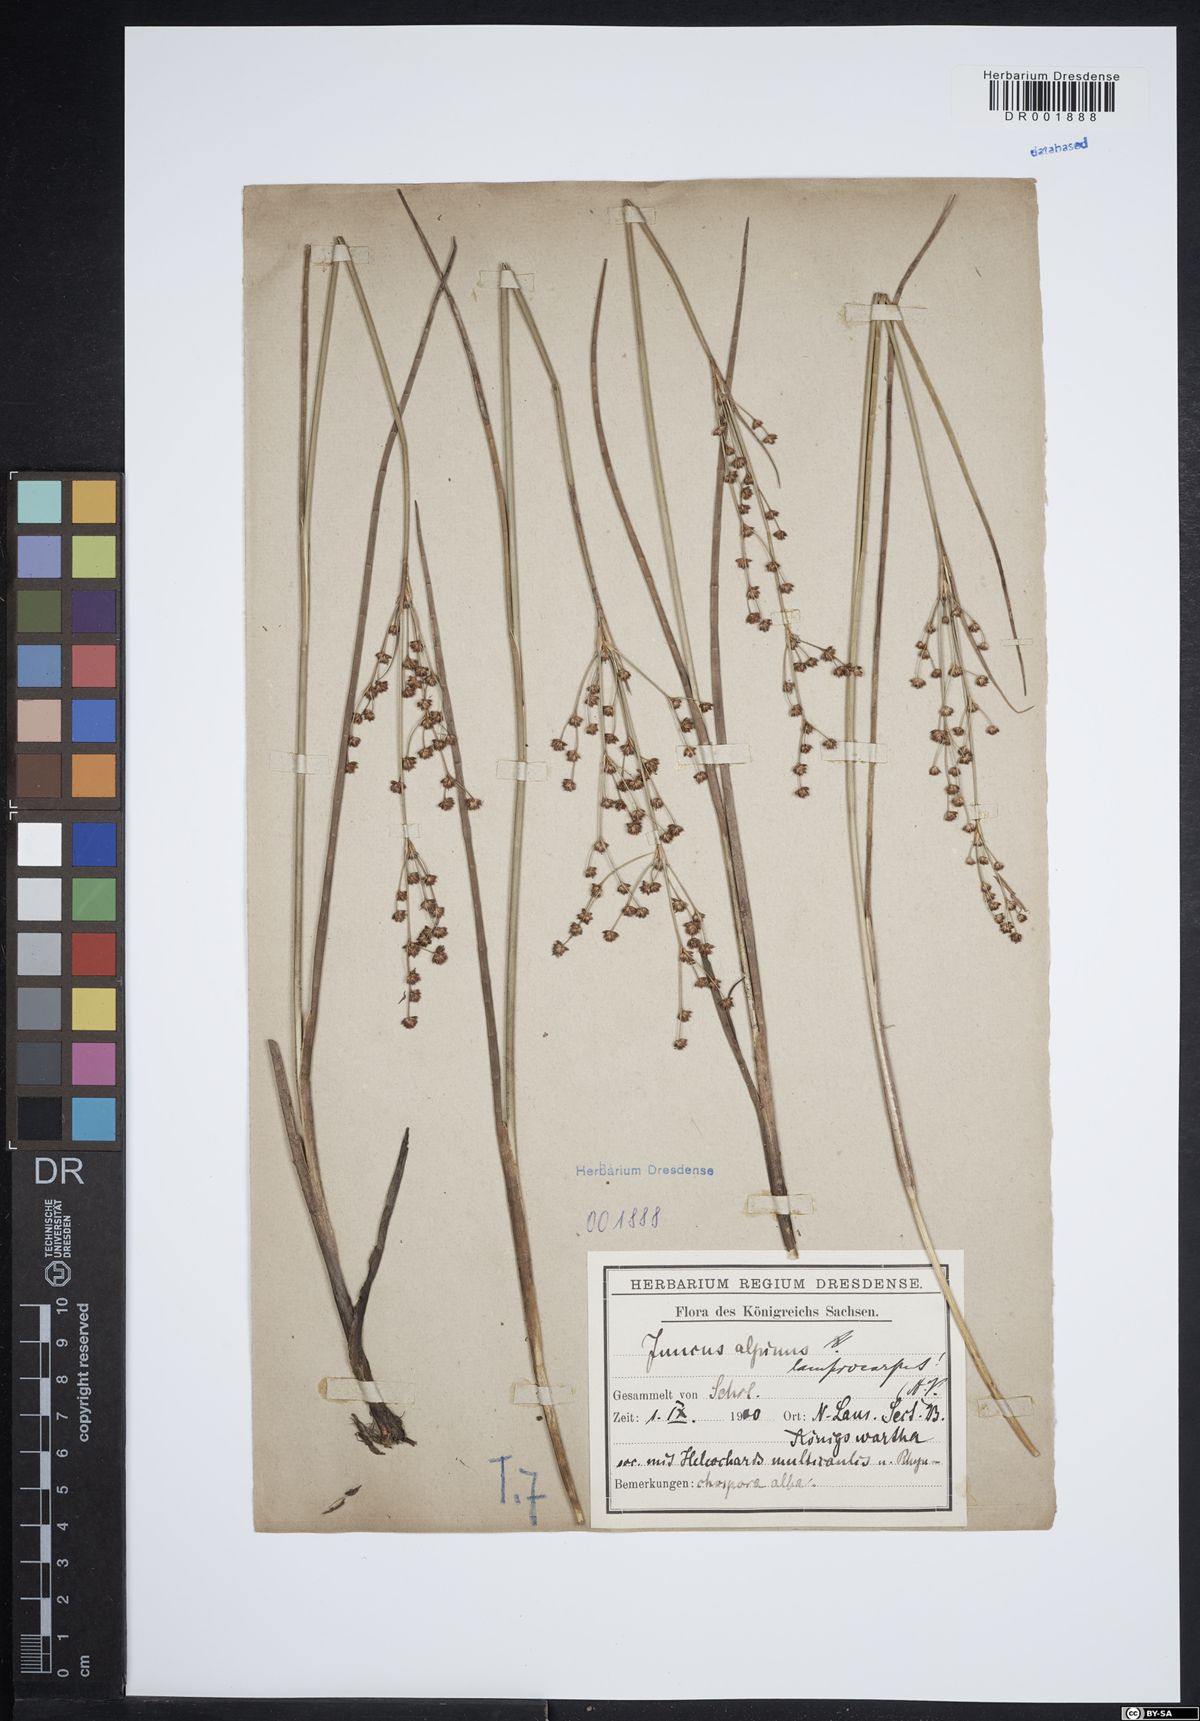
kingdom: Plantae
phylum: Tracheophyta
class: Liliopsida
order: Poales
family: Juncaceae
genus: Juncus
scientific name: Juncus articulatus
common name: Jointed rush
